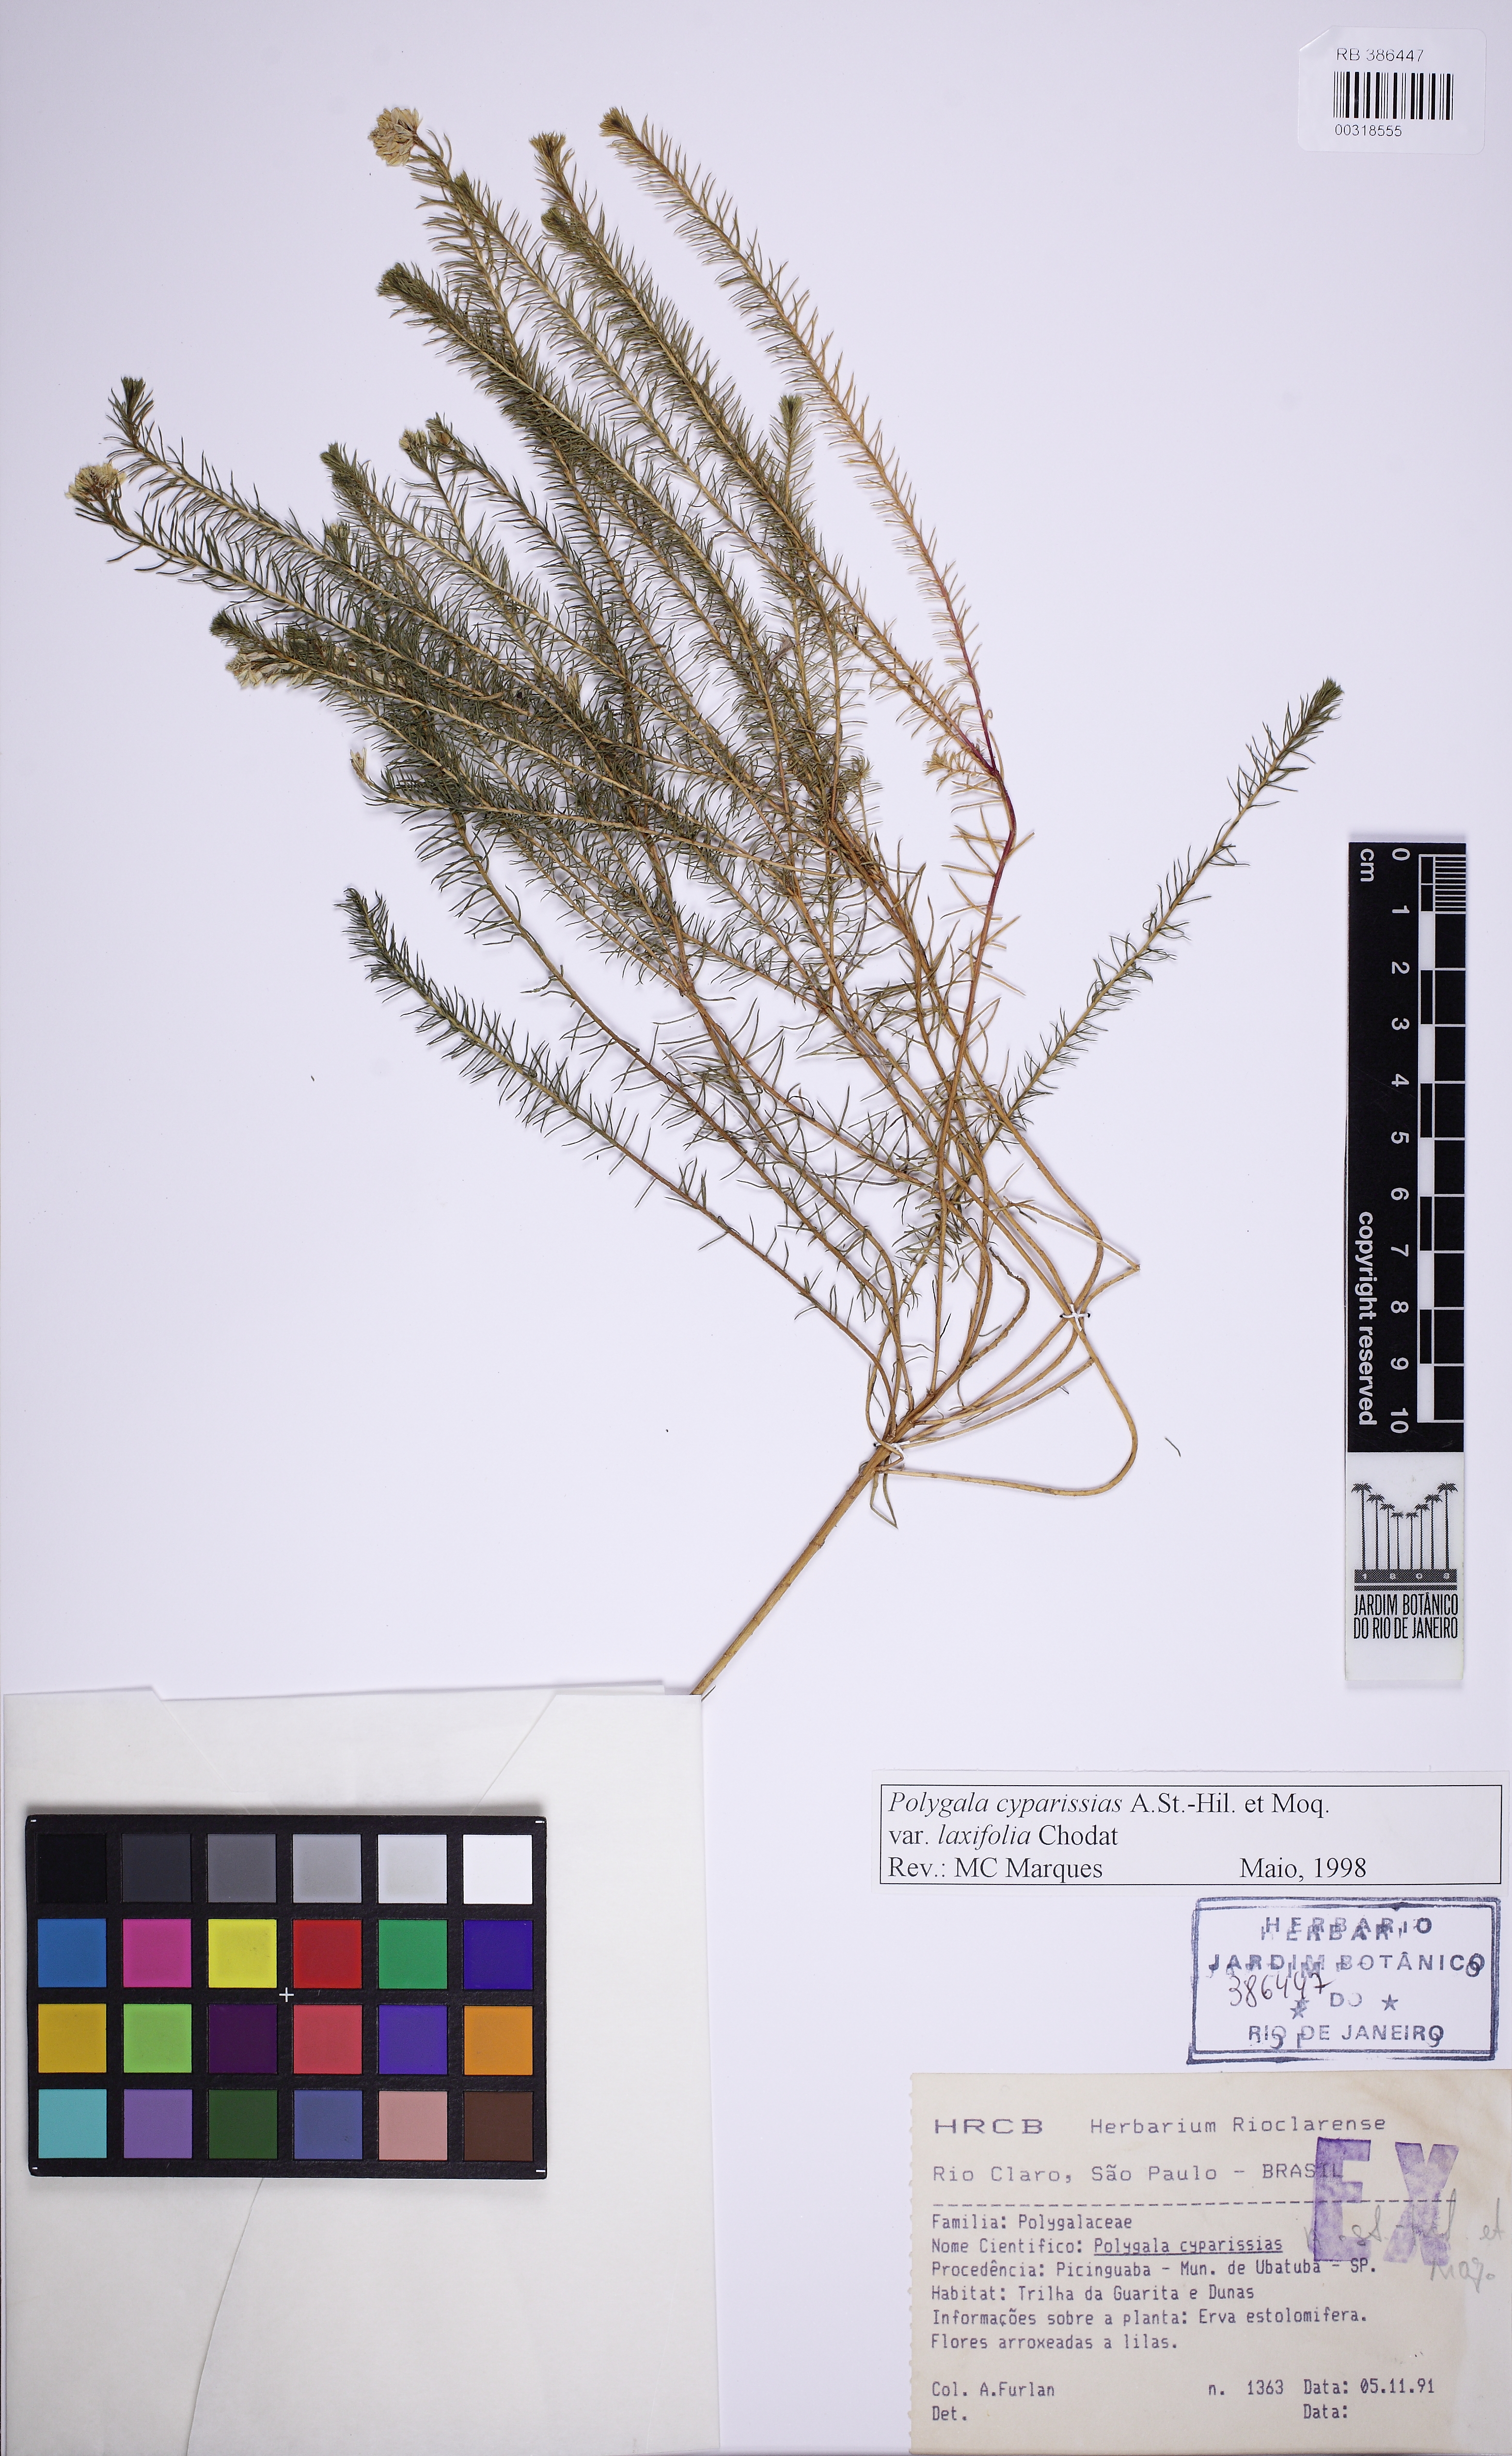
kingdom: Plantae
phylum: Tracheophyta
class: Magnoliopsida
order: Fabales
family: Polygalaceae
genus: Polygala
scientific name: Polygala cyparissias
